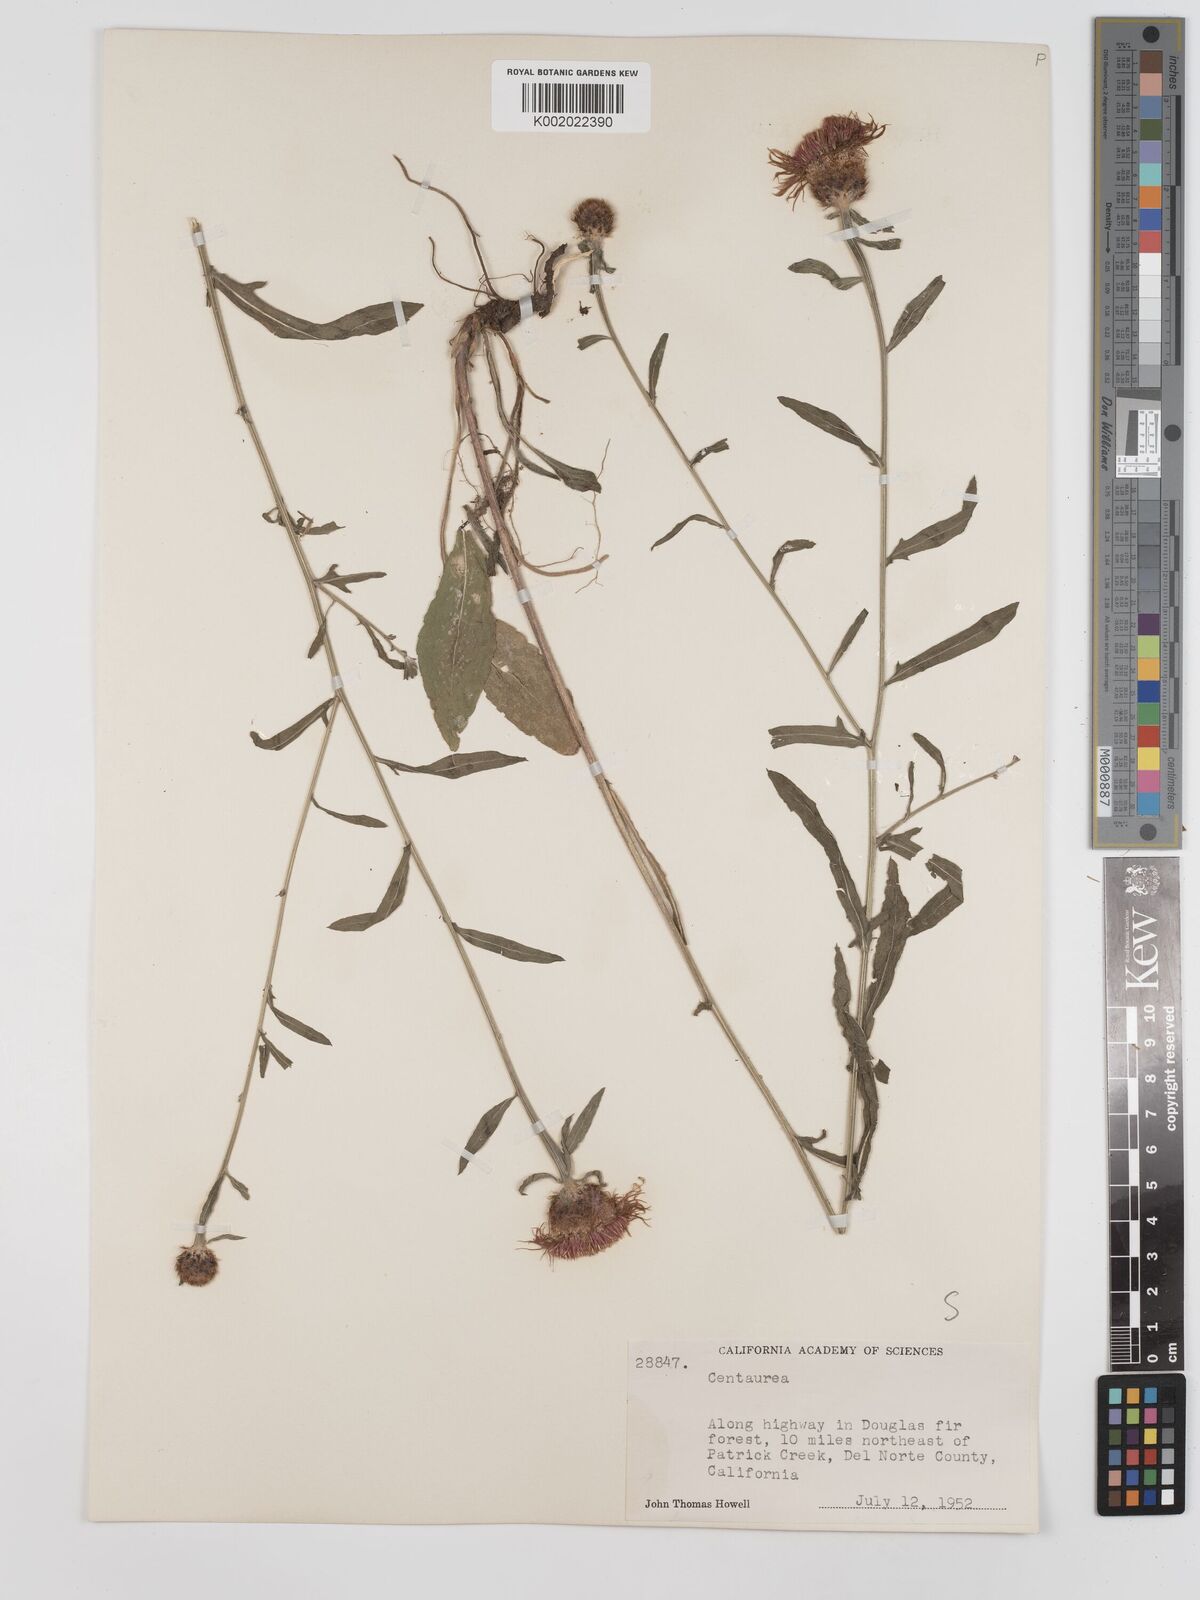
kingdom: Plantae
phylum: Tracheophyta
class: Magnoliopsida
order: Asterales
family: Asteraceae
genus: Centaurea
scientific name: Centaurea jacea
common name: Brown knapweed
